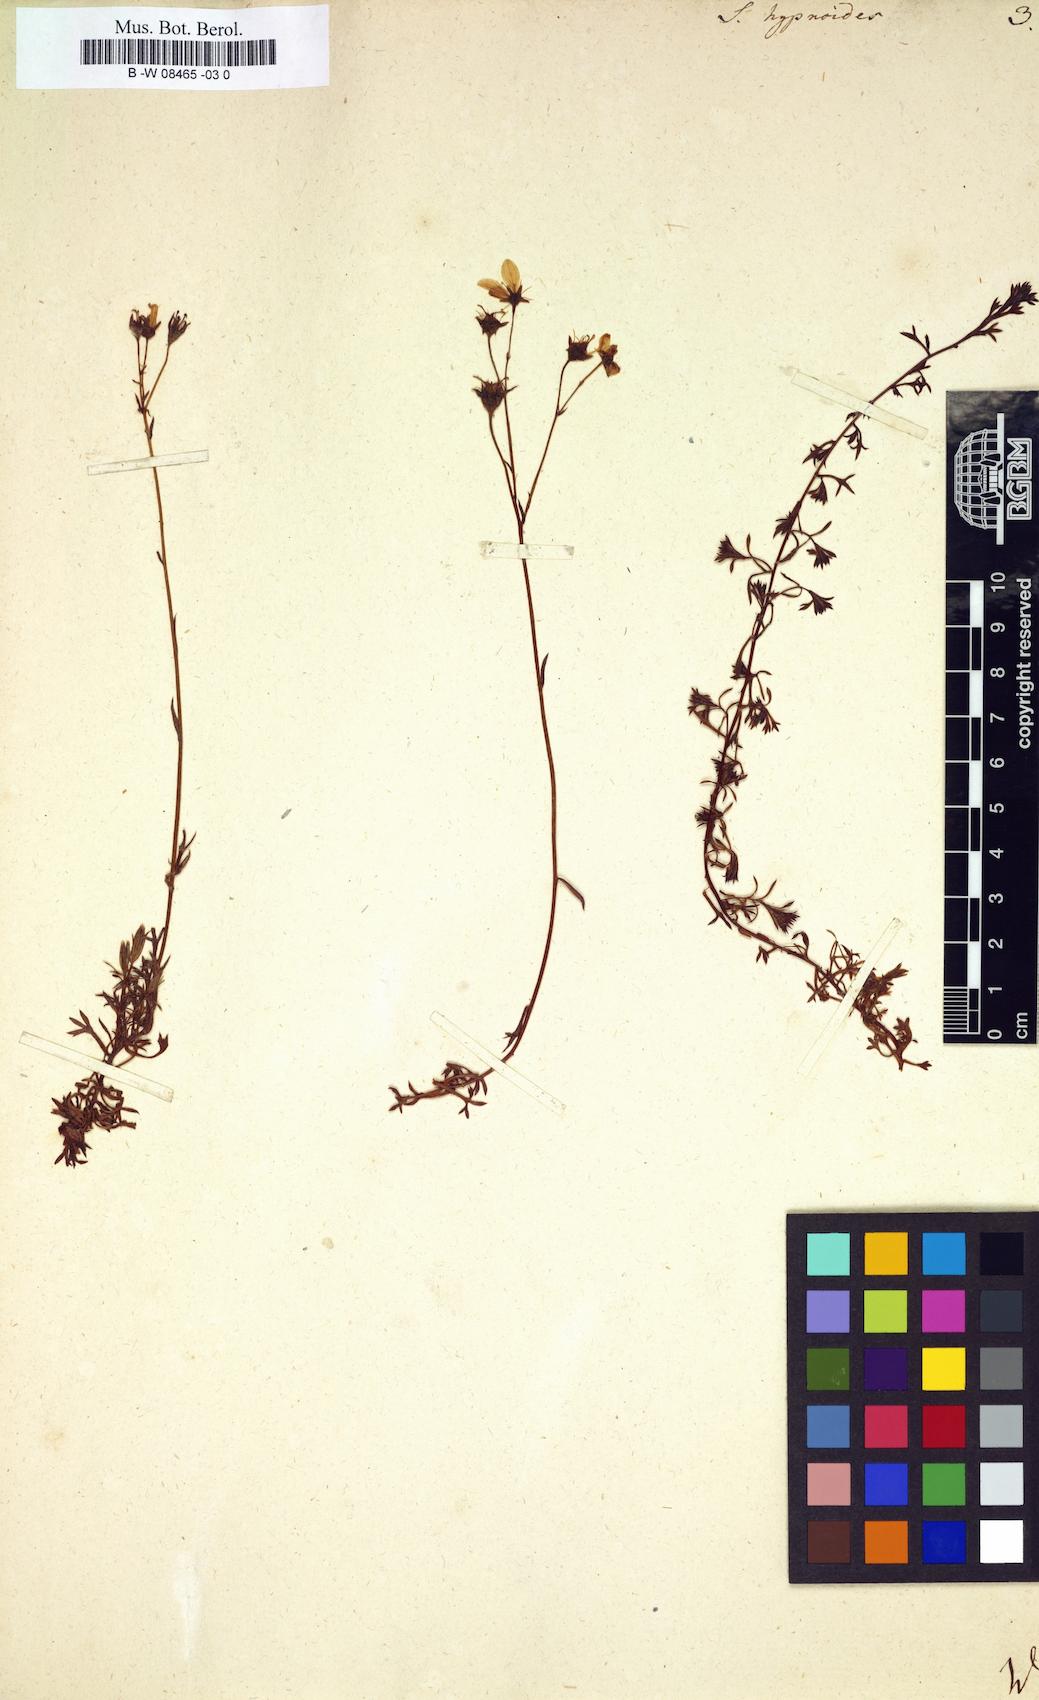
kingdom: Plantae
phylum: Tracheophyta
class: Magnoliopsida
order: Saxifragales
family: Saxifragaceae
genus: Saxifraga
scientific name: Saxifraga hypnoides
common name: Mossy saxifrage
